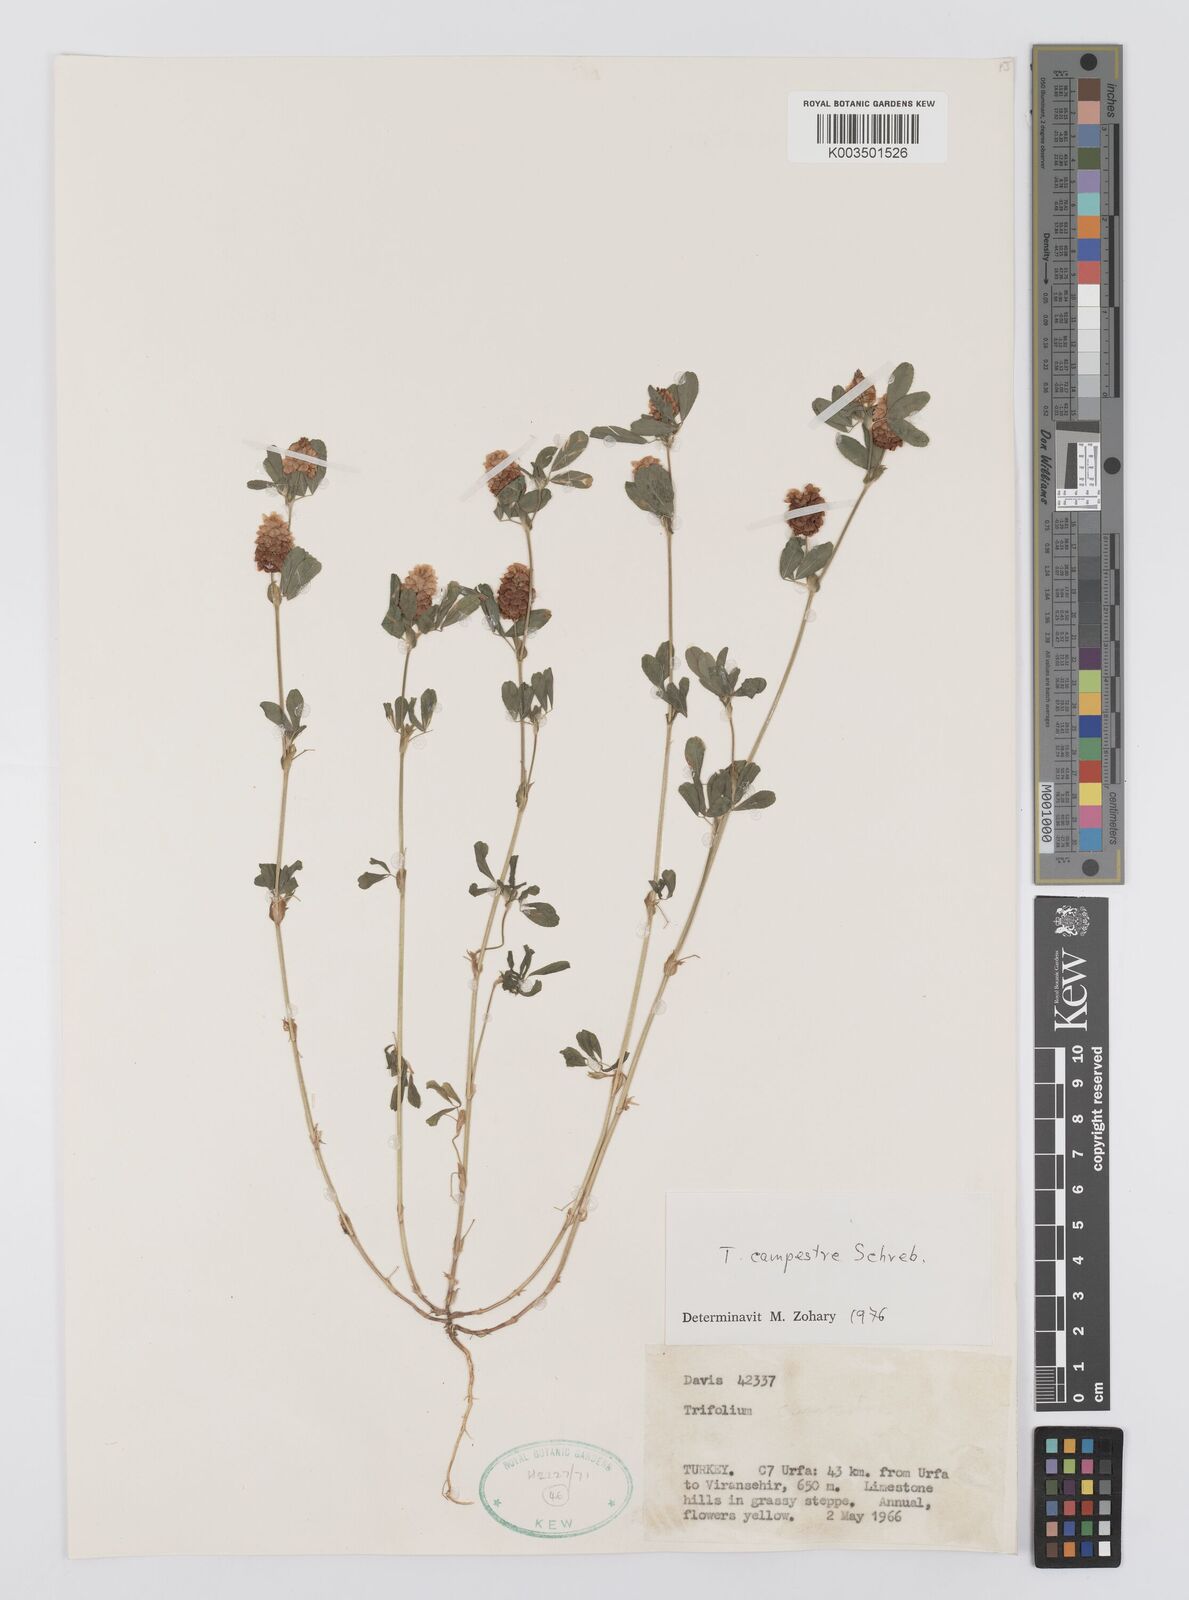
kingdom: Plantae
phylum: Tracheophyta
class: Magnoliopsida
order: Fabales
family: Fabaceae
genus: Trifolium
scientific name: Trifolium campestre
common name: Field clover
